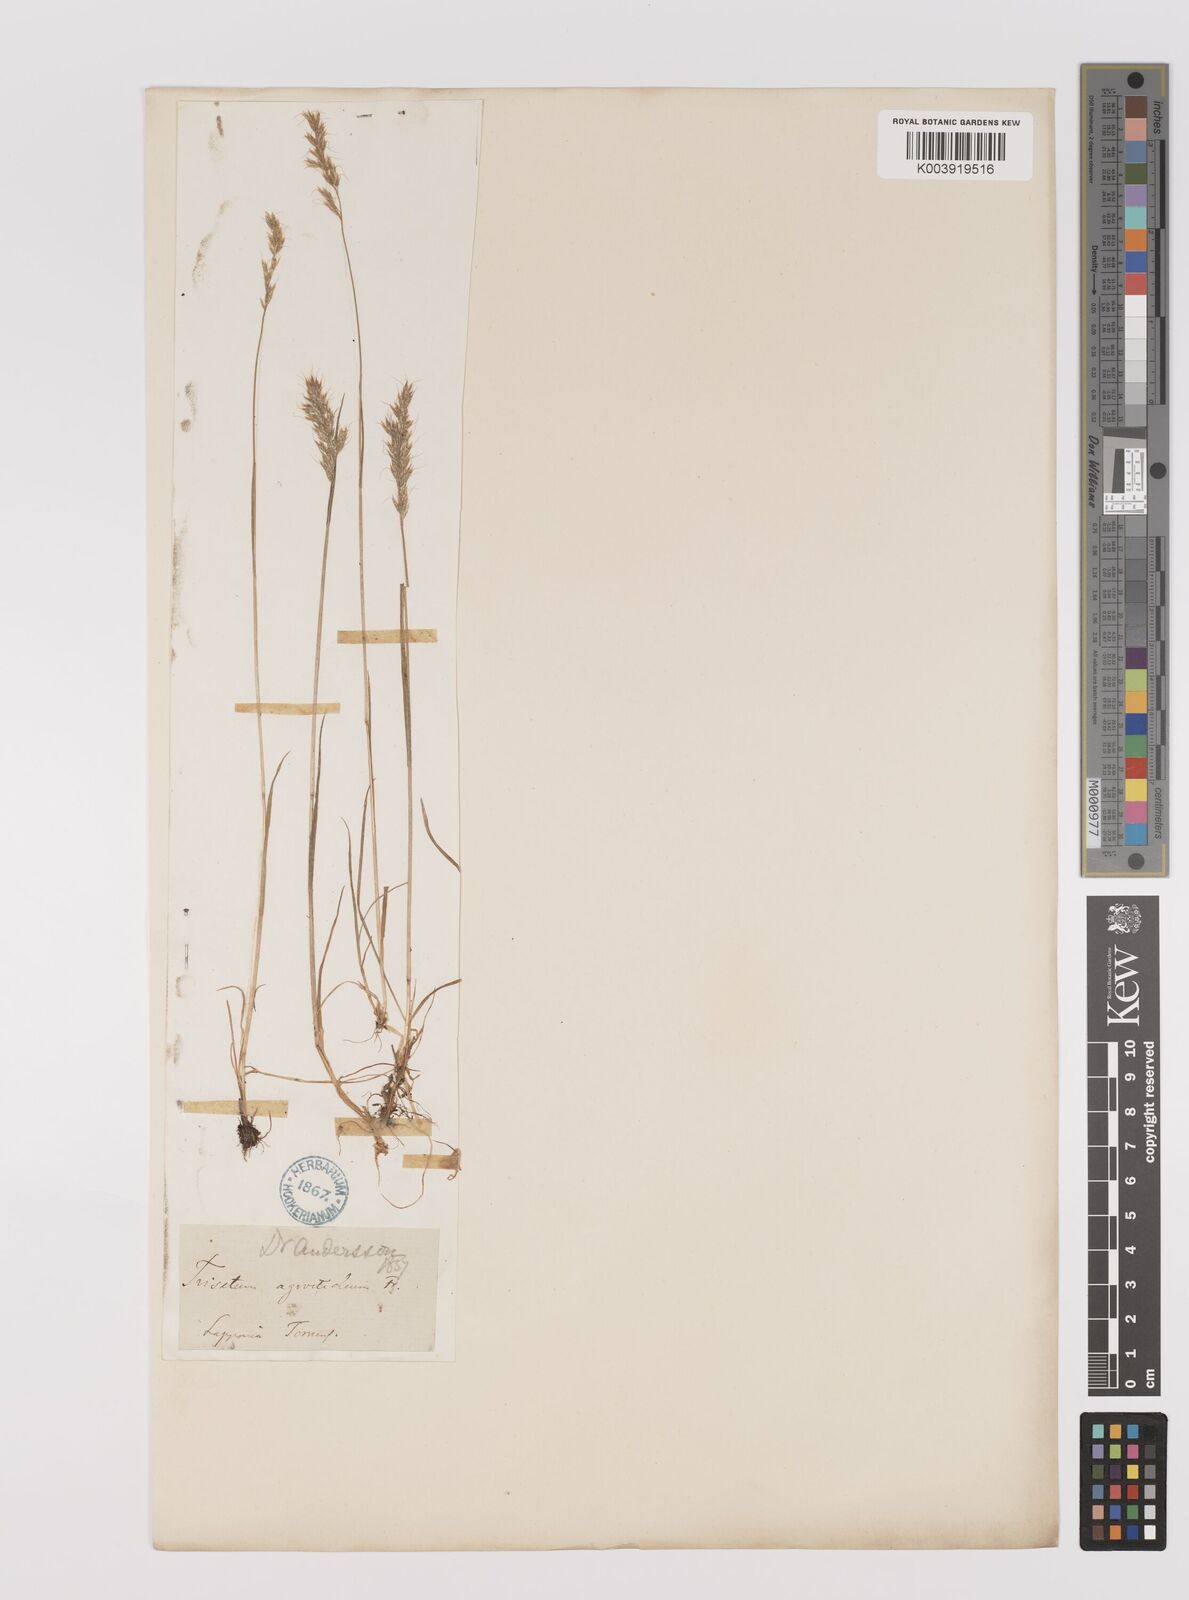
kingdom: Plantae
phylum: Tracheophyta
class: Liliopsida
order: Poales
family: Poaceae
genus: Koeleria
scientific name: Koeleria spicata
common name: Mountain trisetum
